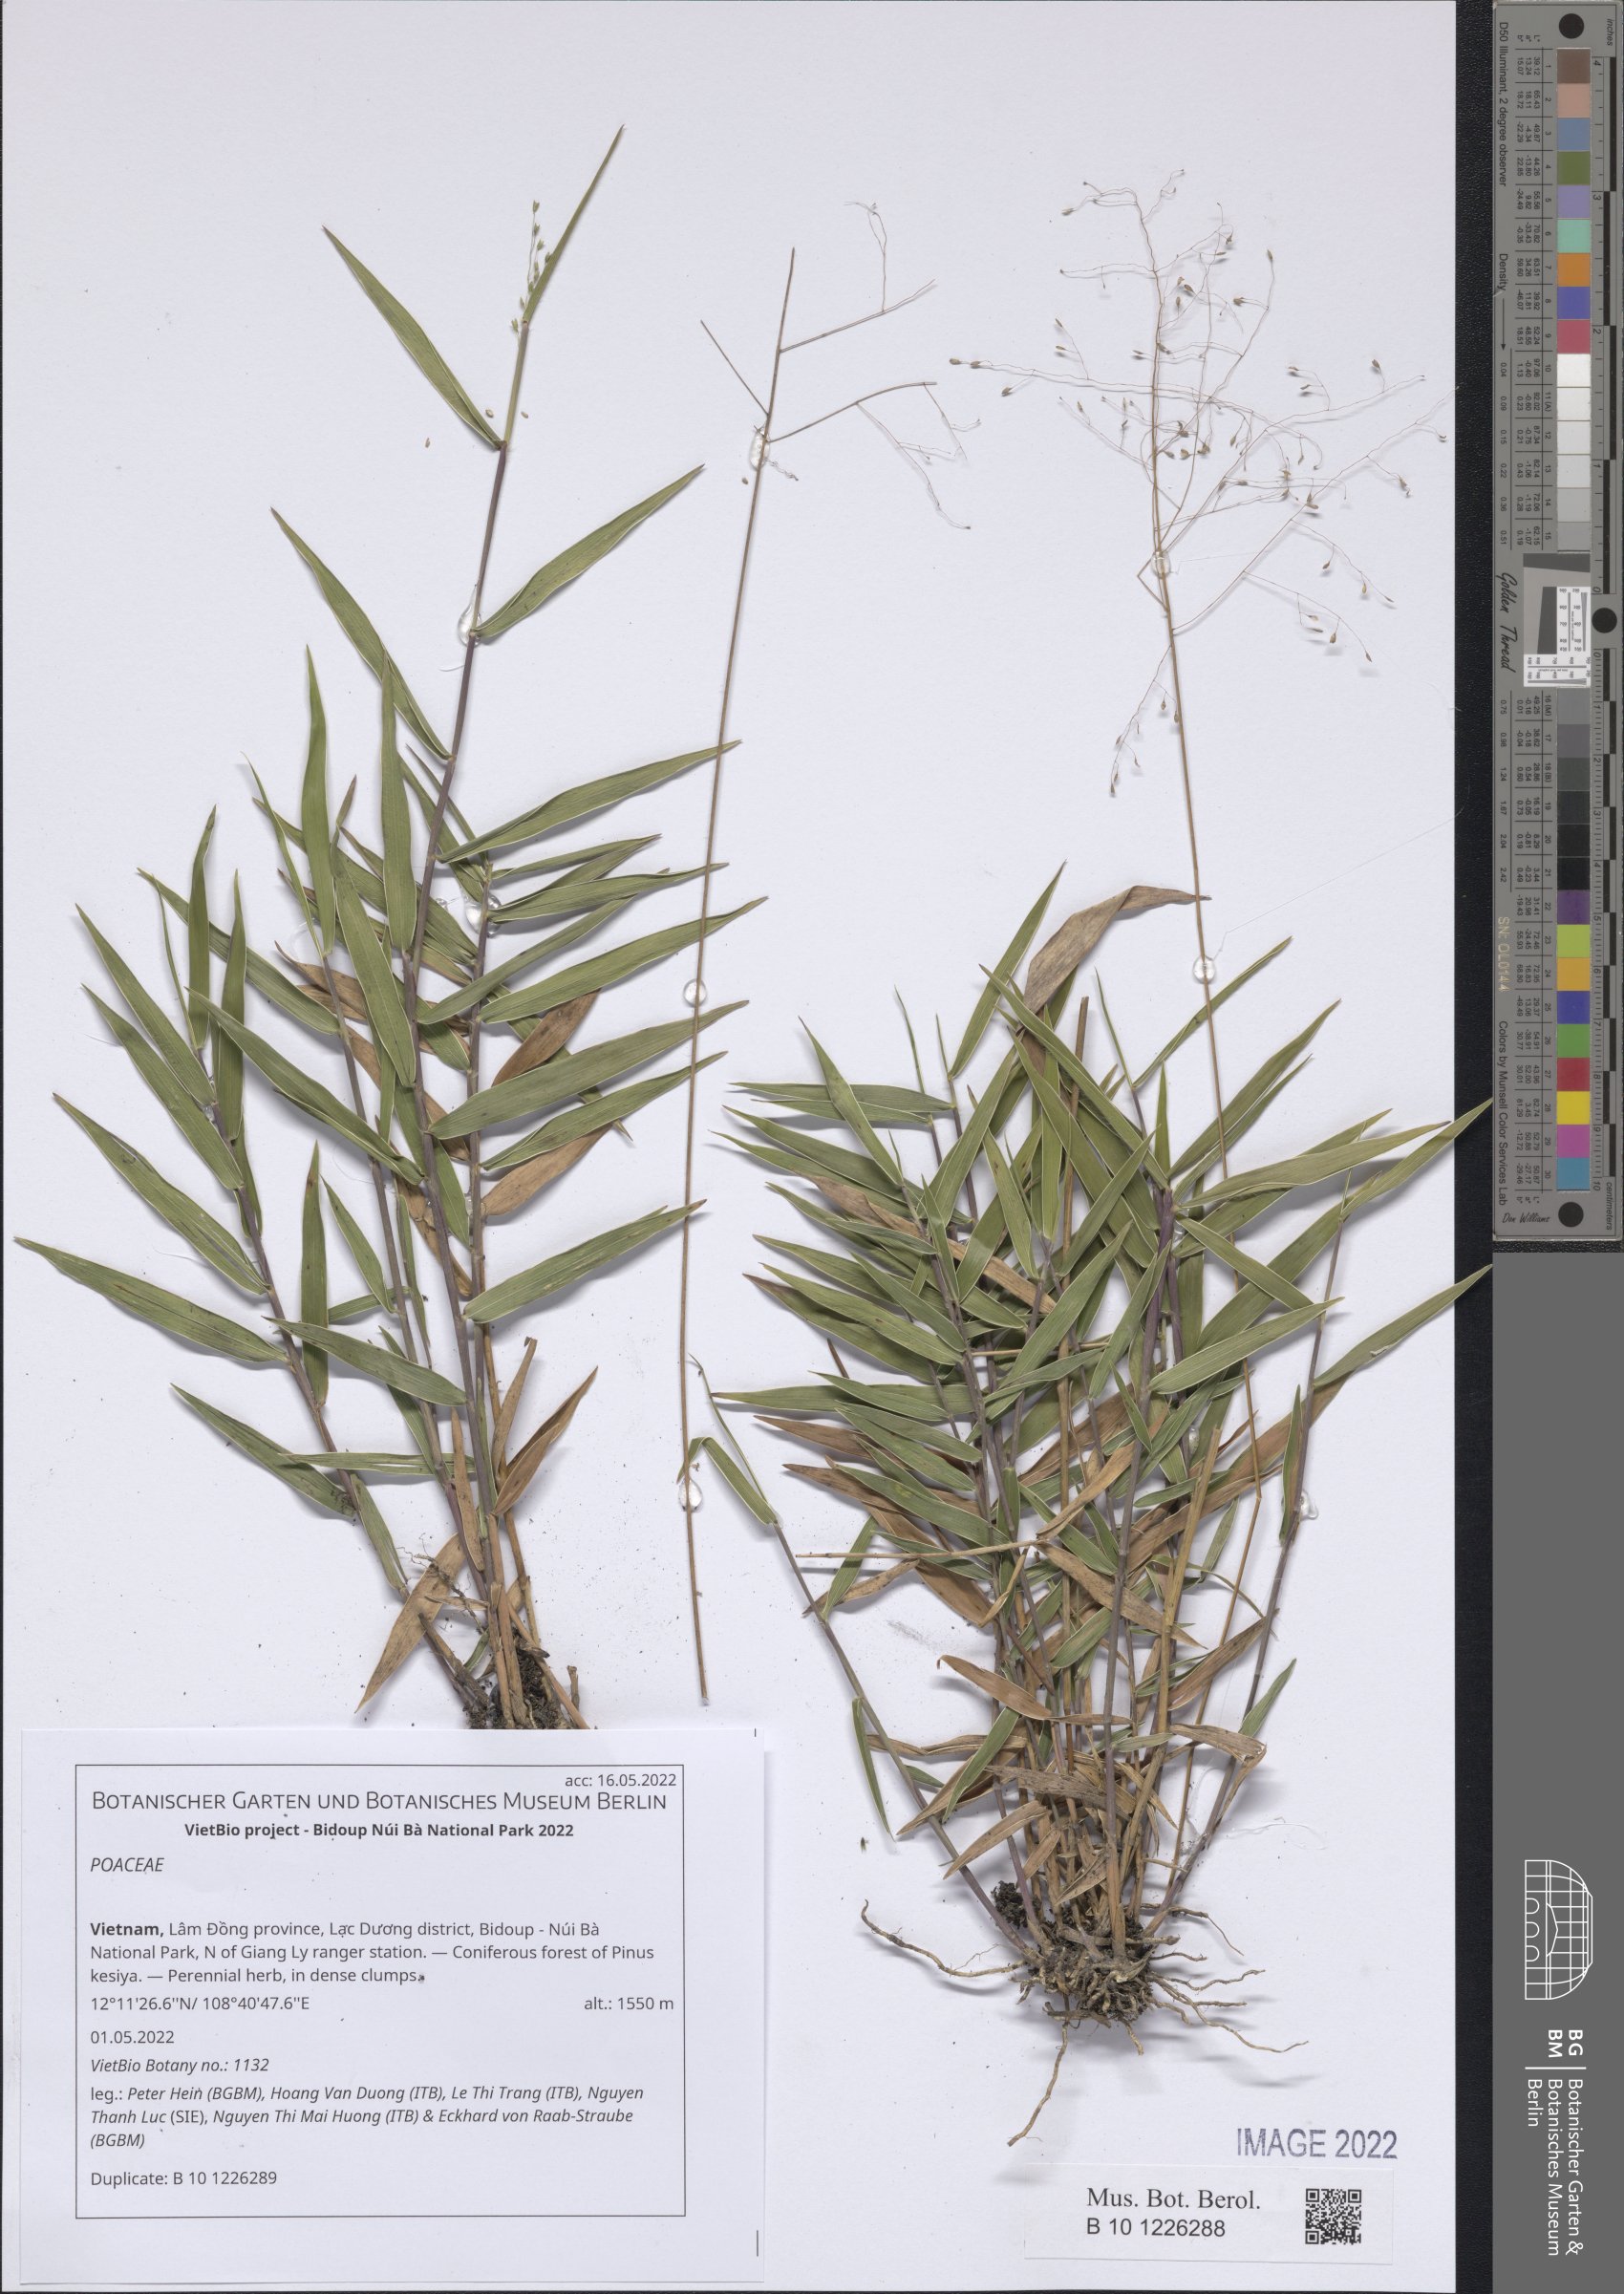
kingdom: Plantae
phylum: Tracheophyta
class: Liliopsida
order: Poales
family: Poaceae
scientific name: Poaceae
